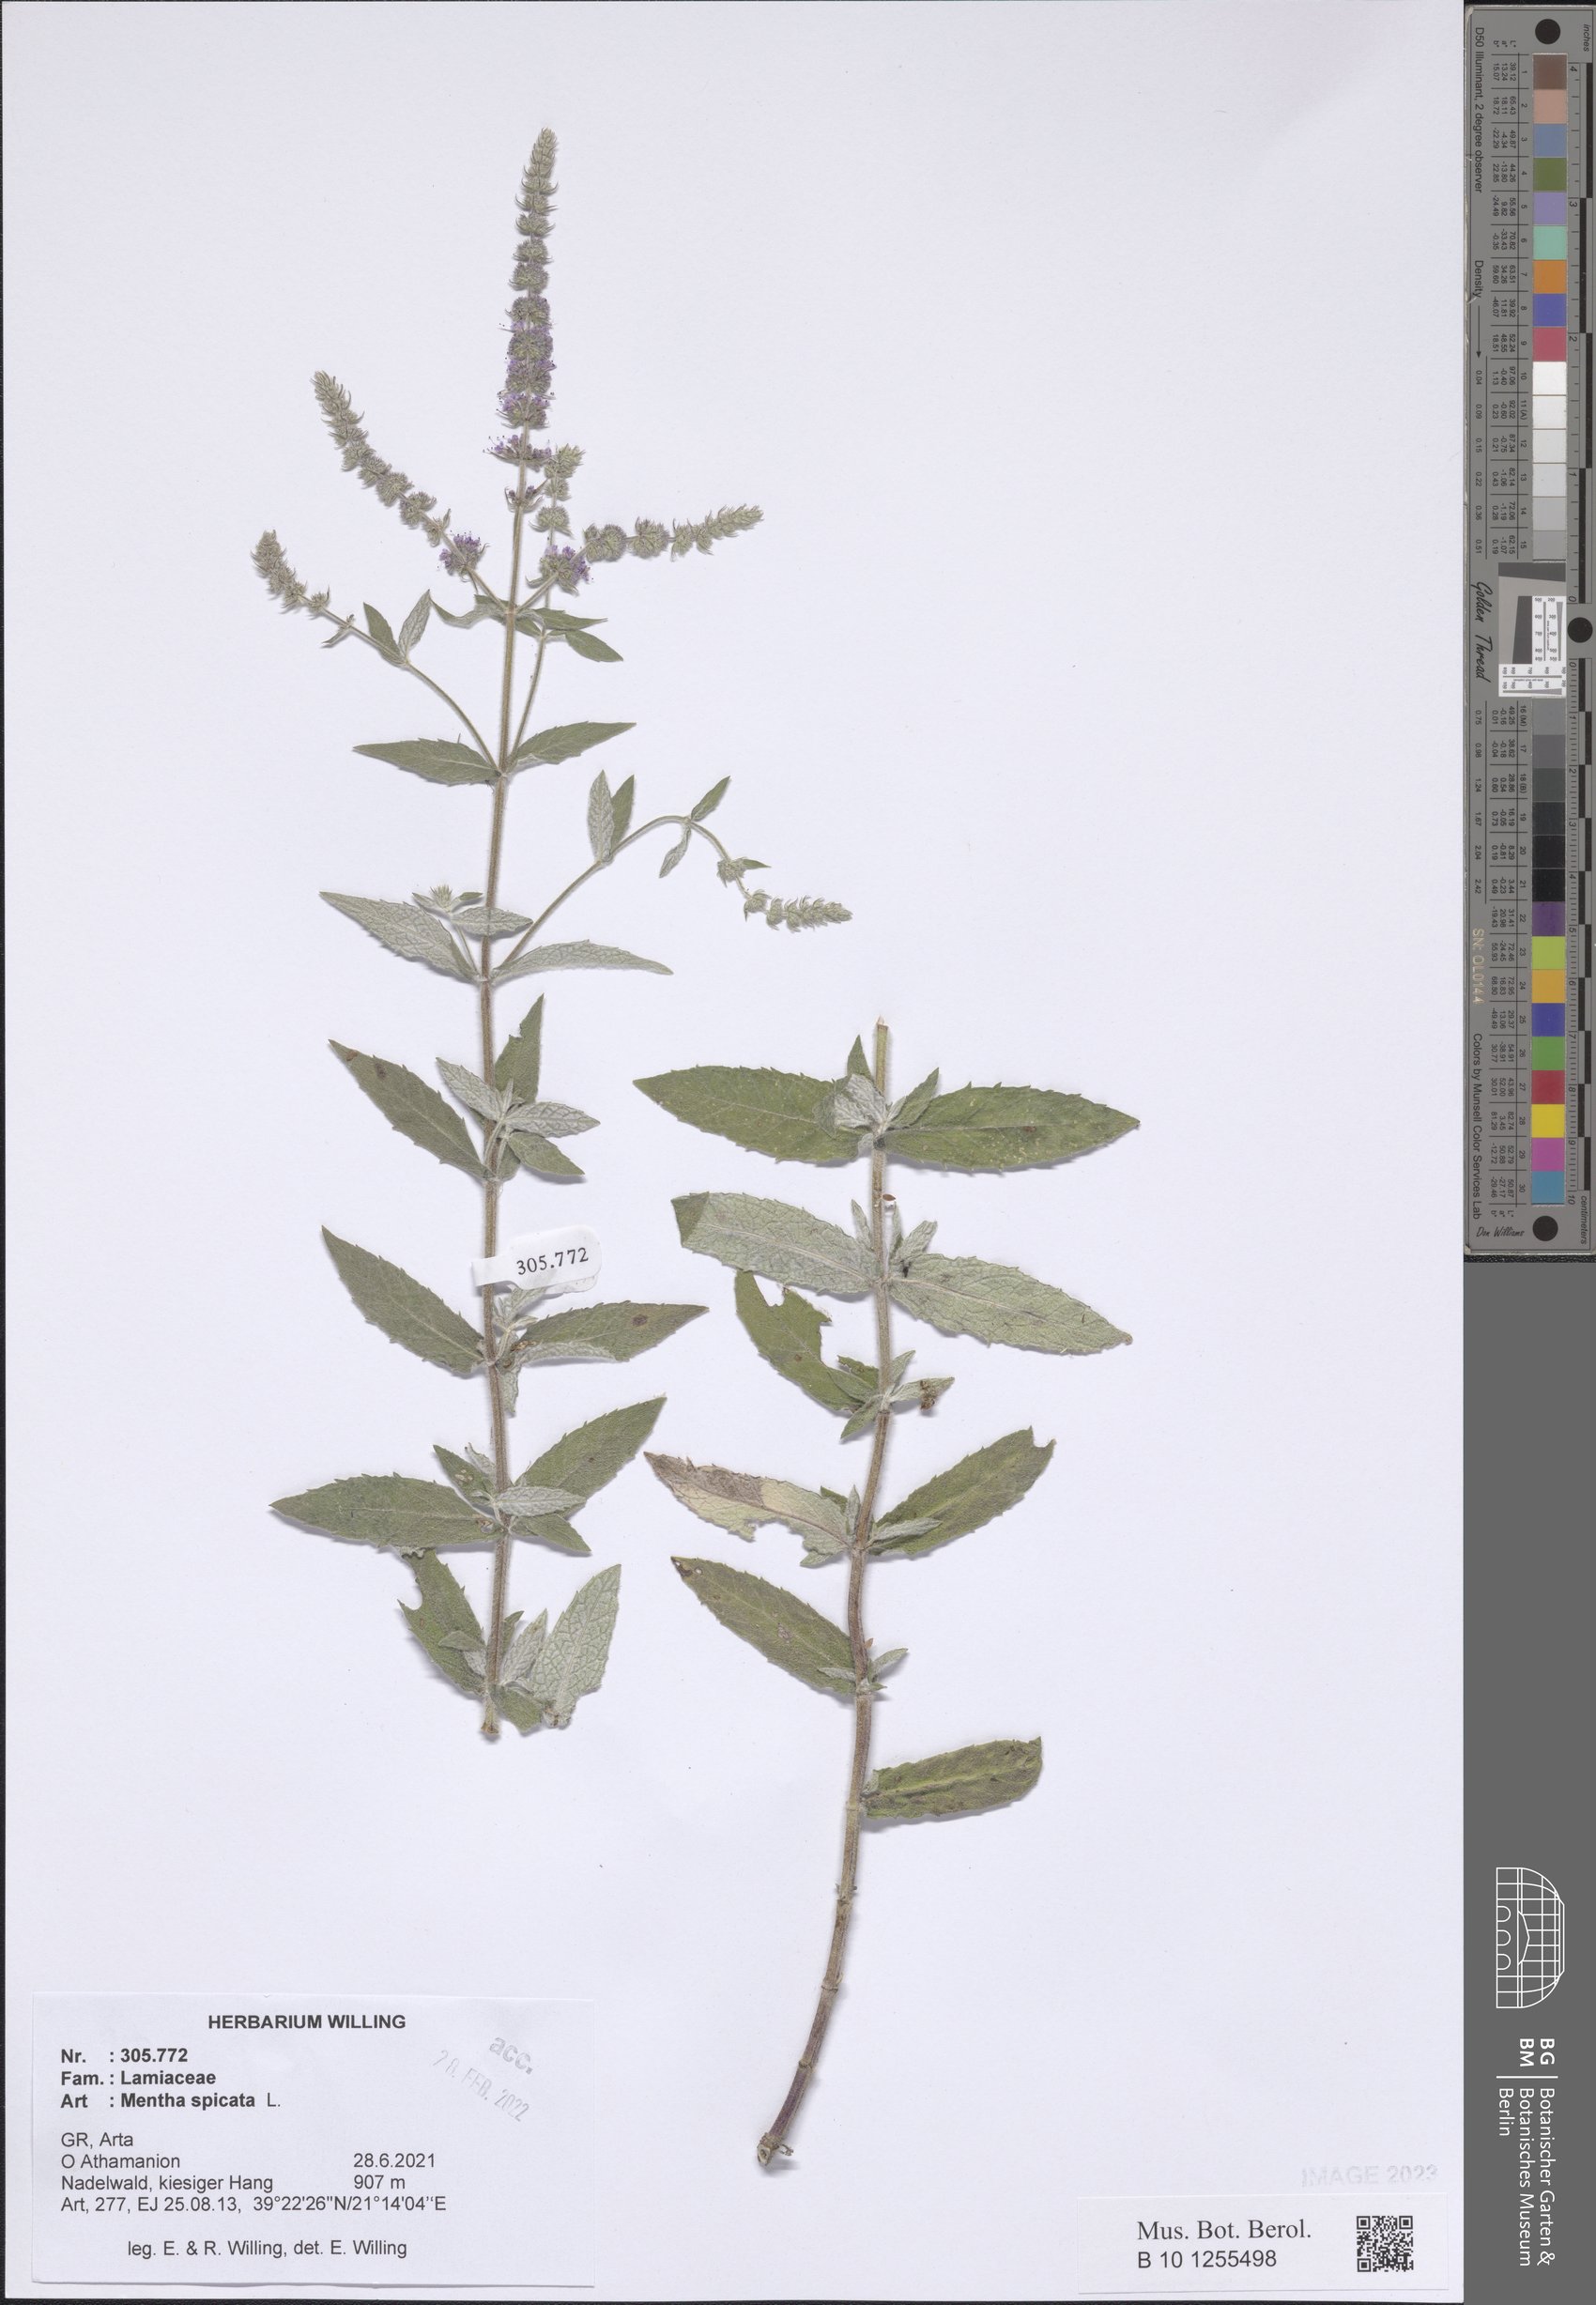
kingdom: Plantae
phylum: Tracheophyta
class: Magnoliopsida
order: Lamiales
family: Lamiaceae
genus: Mentha
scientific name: Mentha spicata
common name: Spearmint
